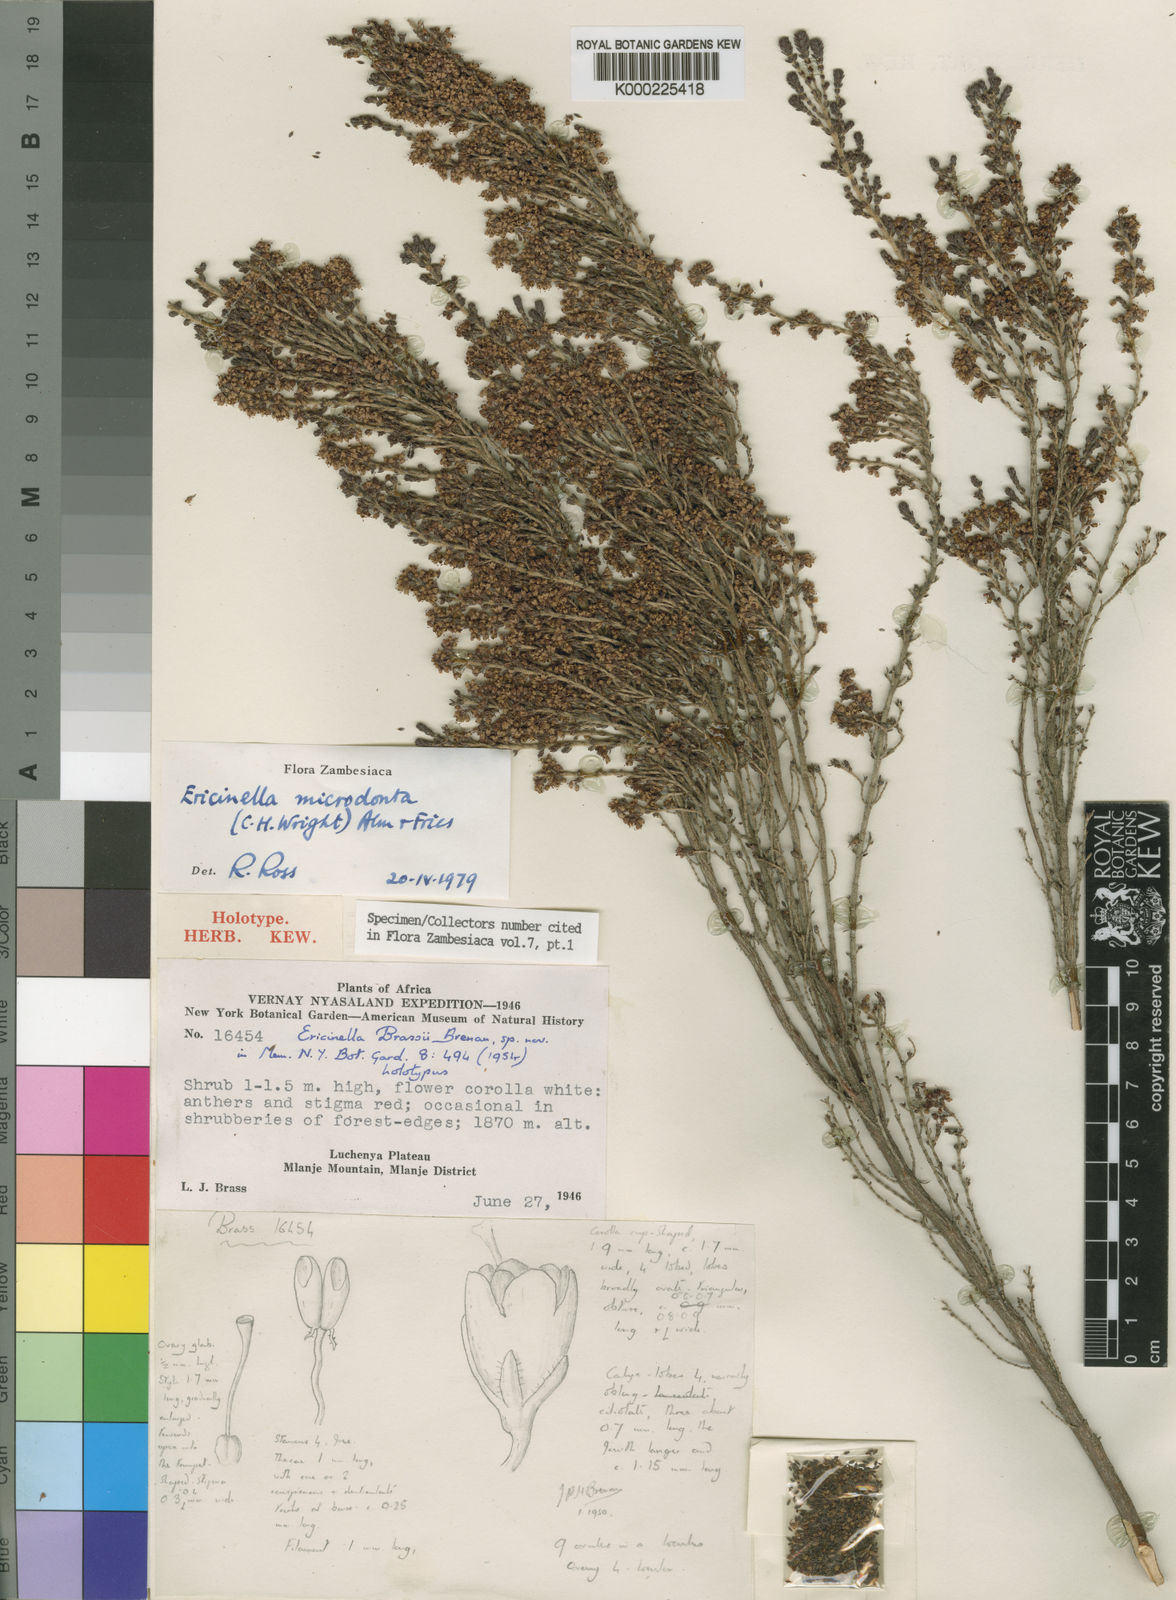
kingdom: Plantae
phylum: Tracheophyta
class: Magnoliopsida
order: Ericales
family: Ericaceae
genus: Erica
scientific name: Erica microdonta
